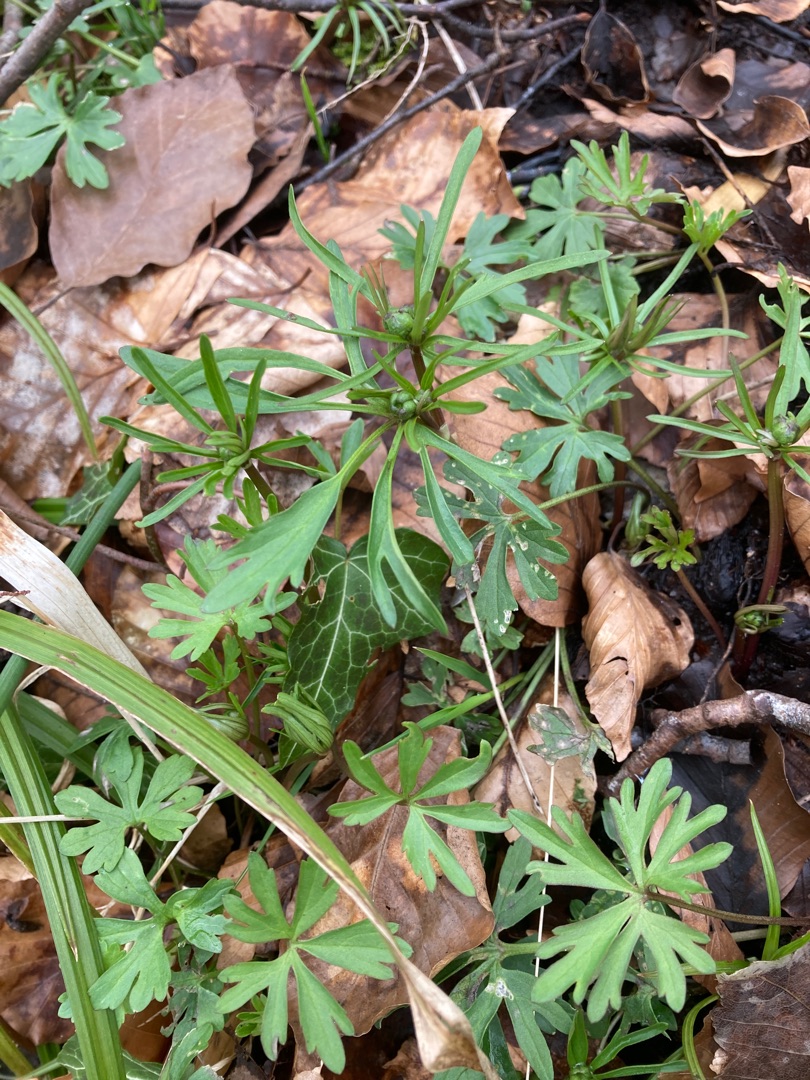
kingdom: Plantae
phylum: Tracheophyta
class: Magnoliopsida
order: Ranunculales
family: Ranunculaceae
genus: Ranunculus
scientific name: Ranunculus auricomus
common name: Nyrebladet ranunkel
